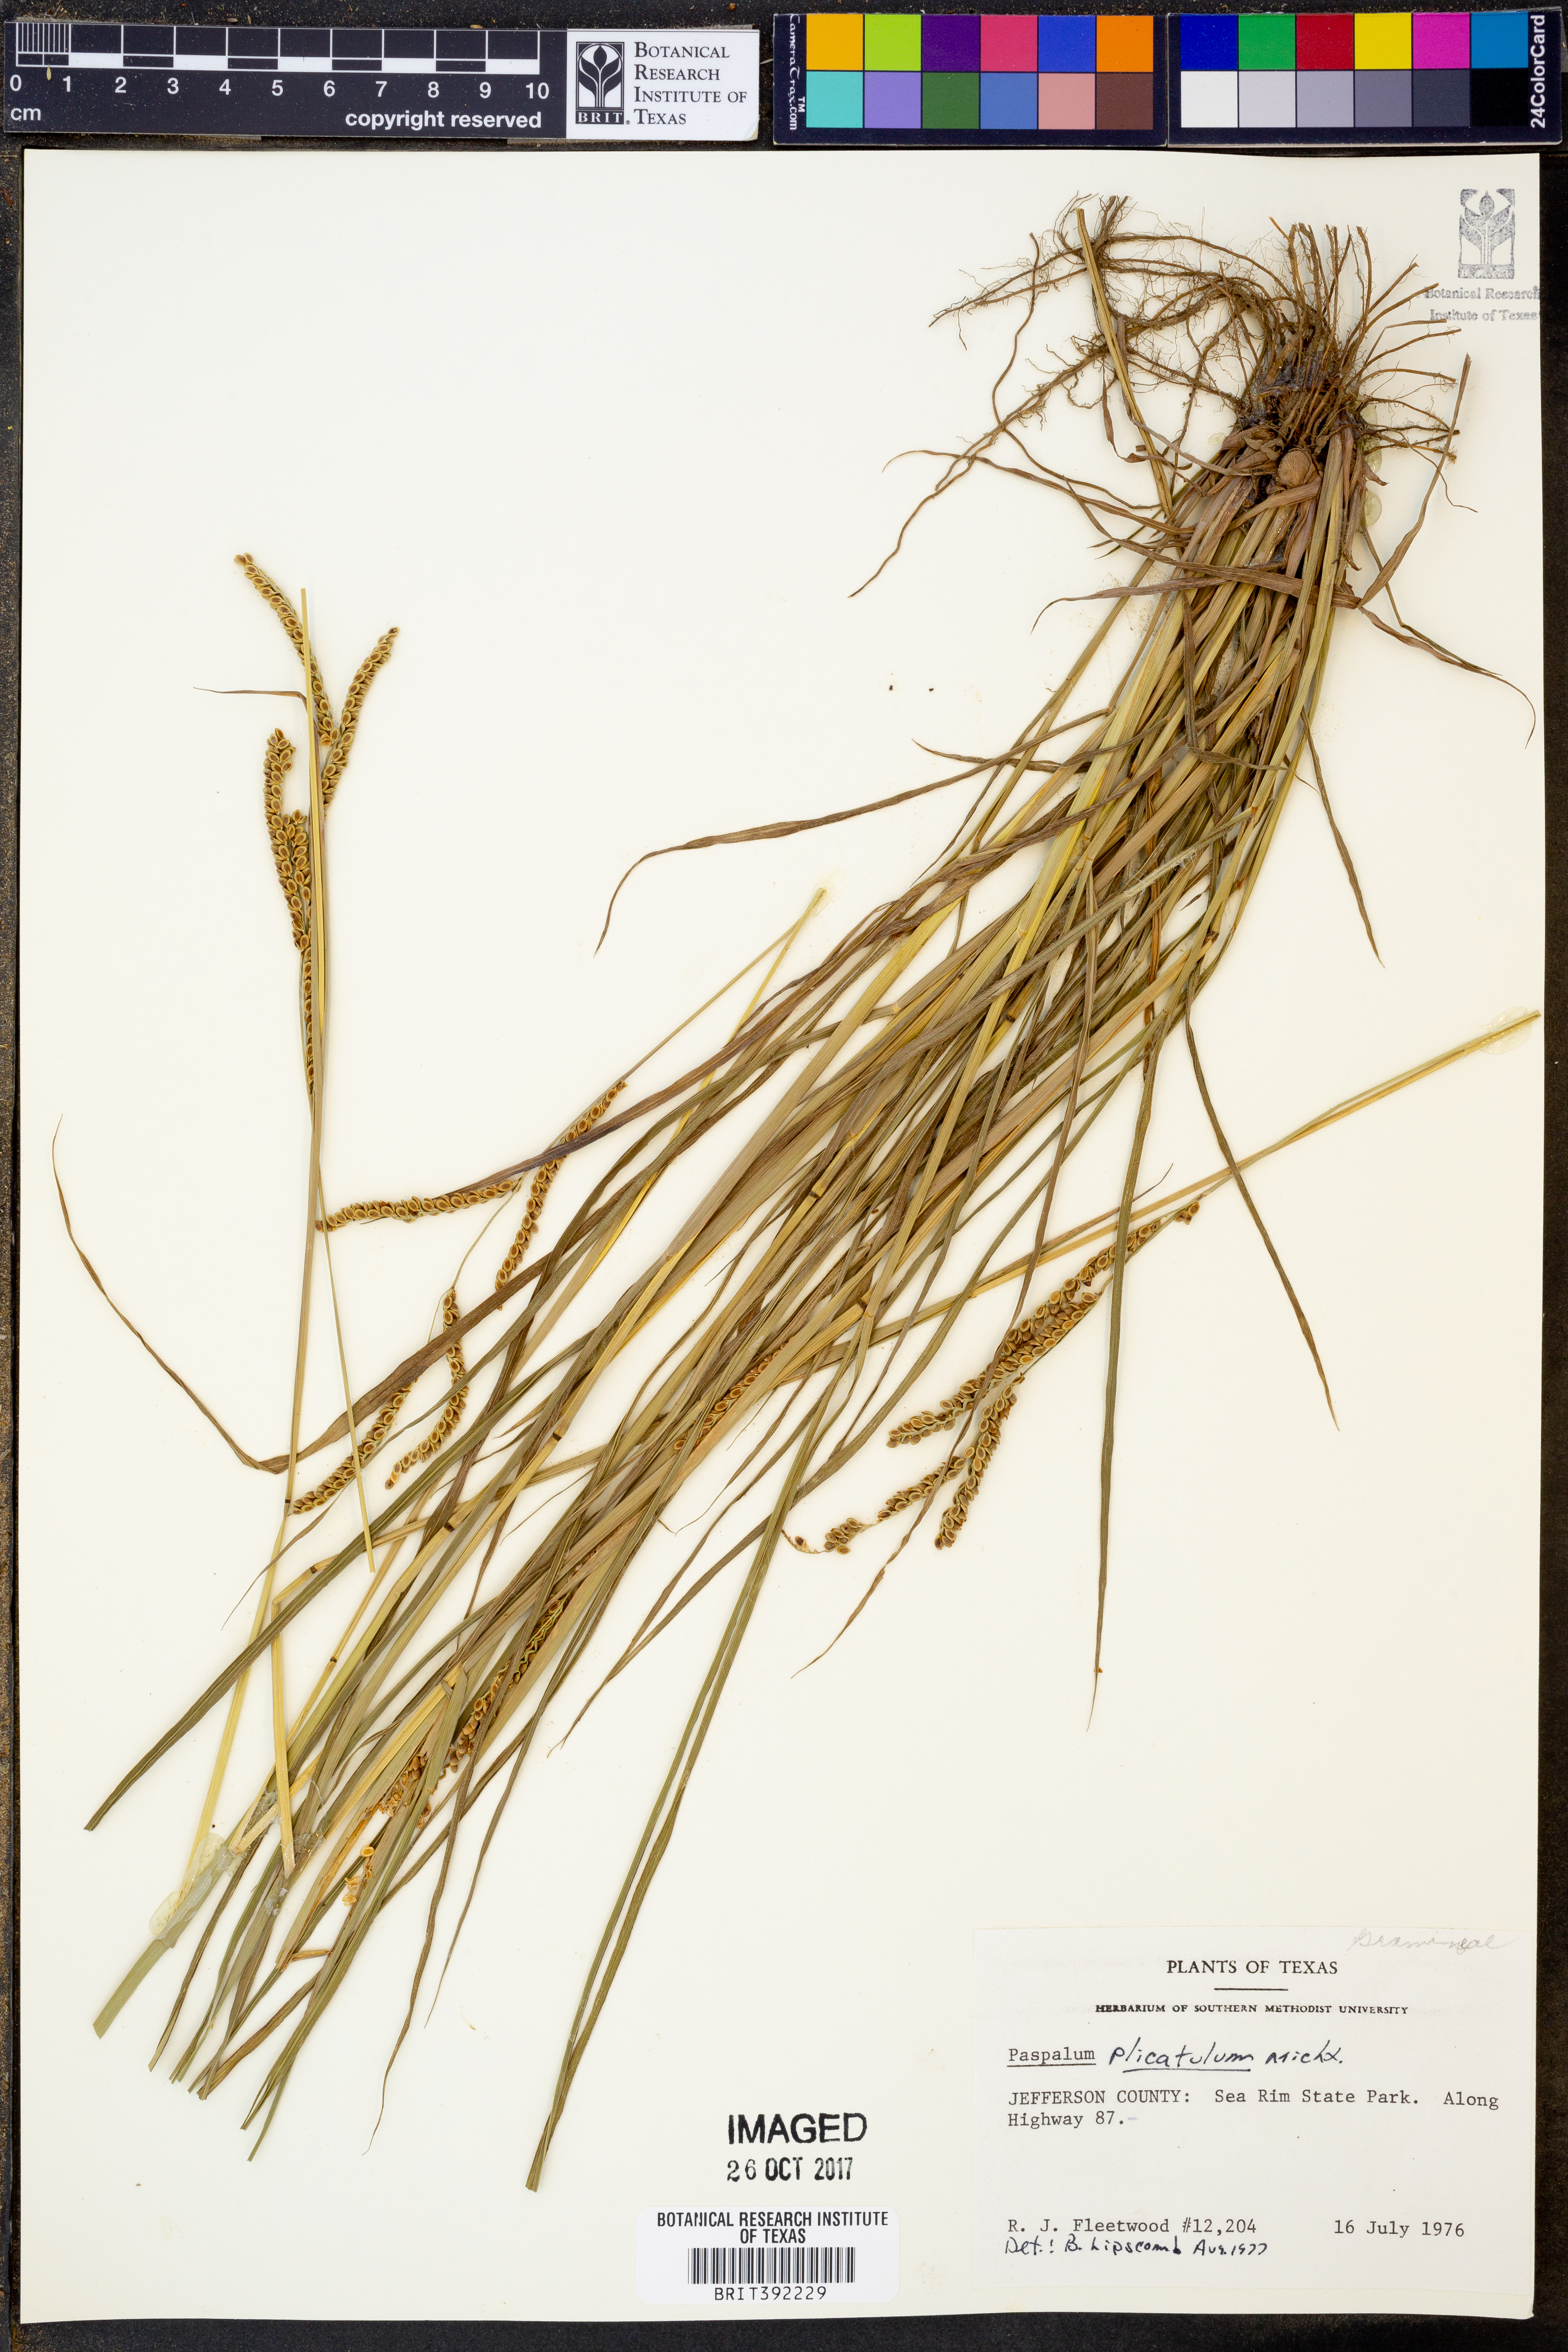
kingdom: Plantae
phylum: Tracheophyta
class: Liliopsida
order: Poales
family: Poaceae
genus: Paspalum
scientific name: Paspalum plicatulum
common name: Top paspalum
